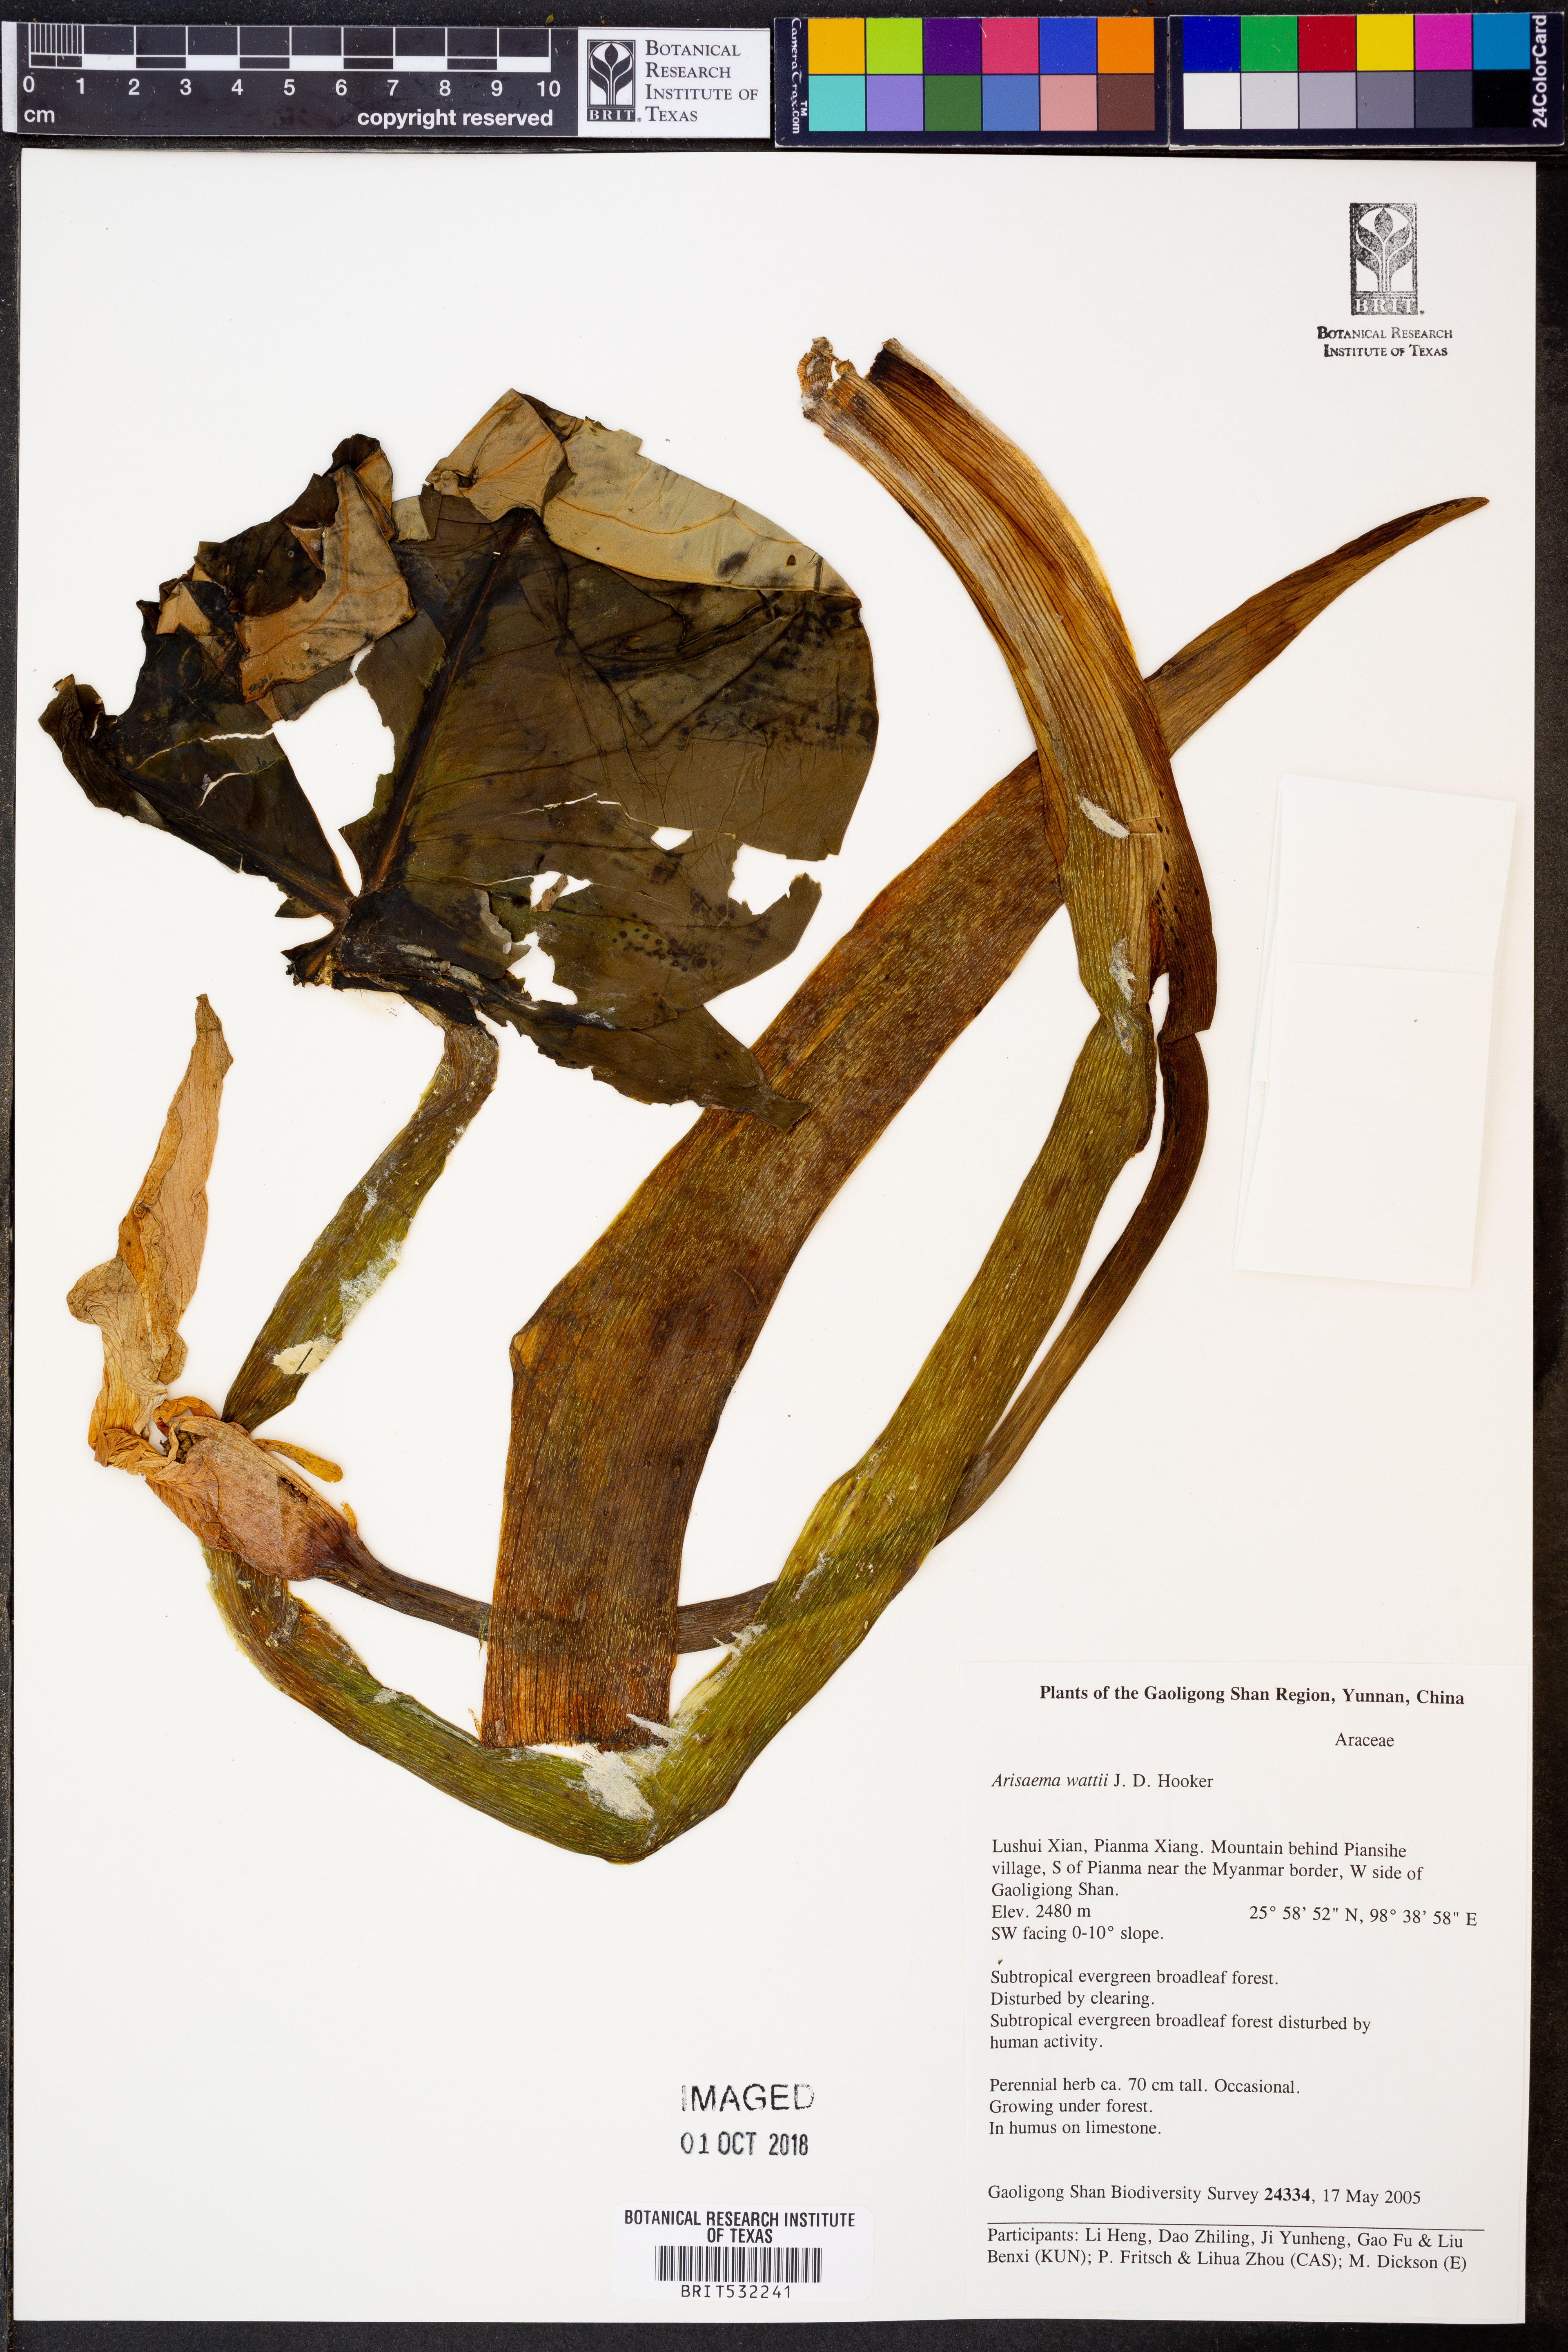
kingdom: Plantae
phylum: Tracheophyta
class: Liliopsida
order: Alismatales
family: Araceae
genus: Arisaema
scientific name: Arisaema wattii
